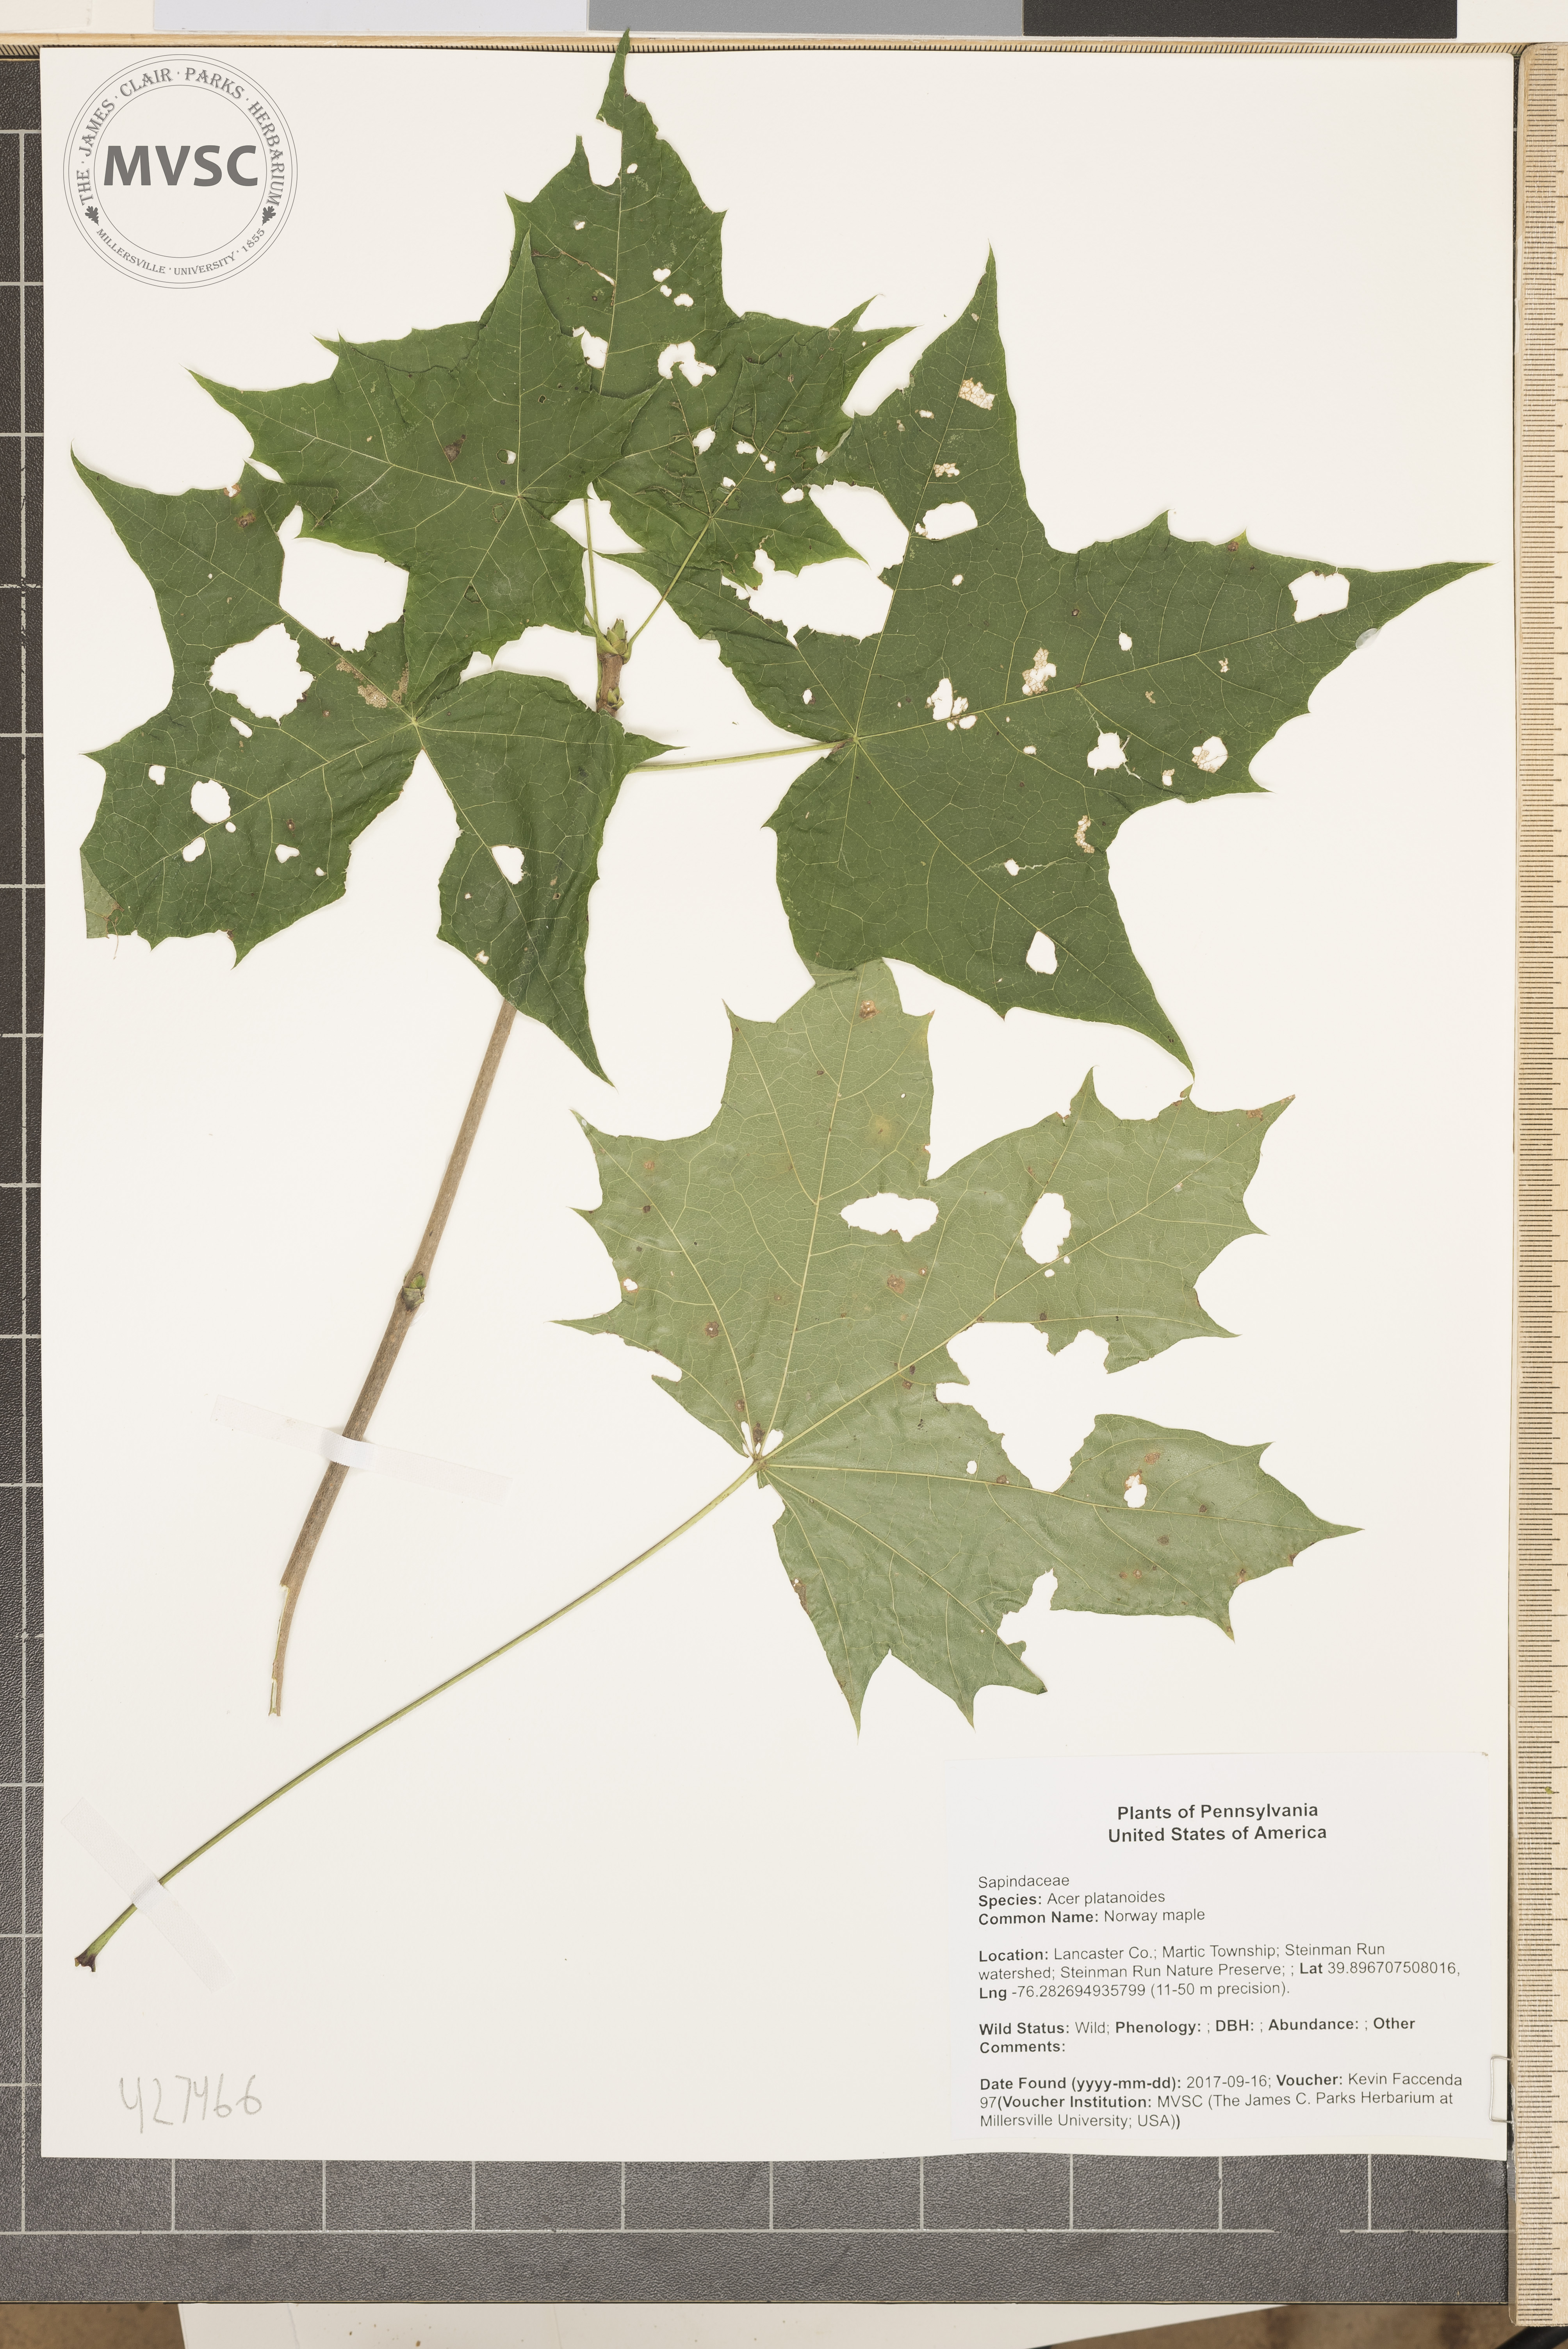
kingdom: Plantae
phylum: Tracheophyta
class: Magnoliopsida
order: Sapindales
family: Sapindaceae
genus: Acer
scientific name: Acer platanoides
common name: Norway maple
